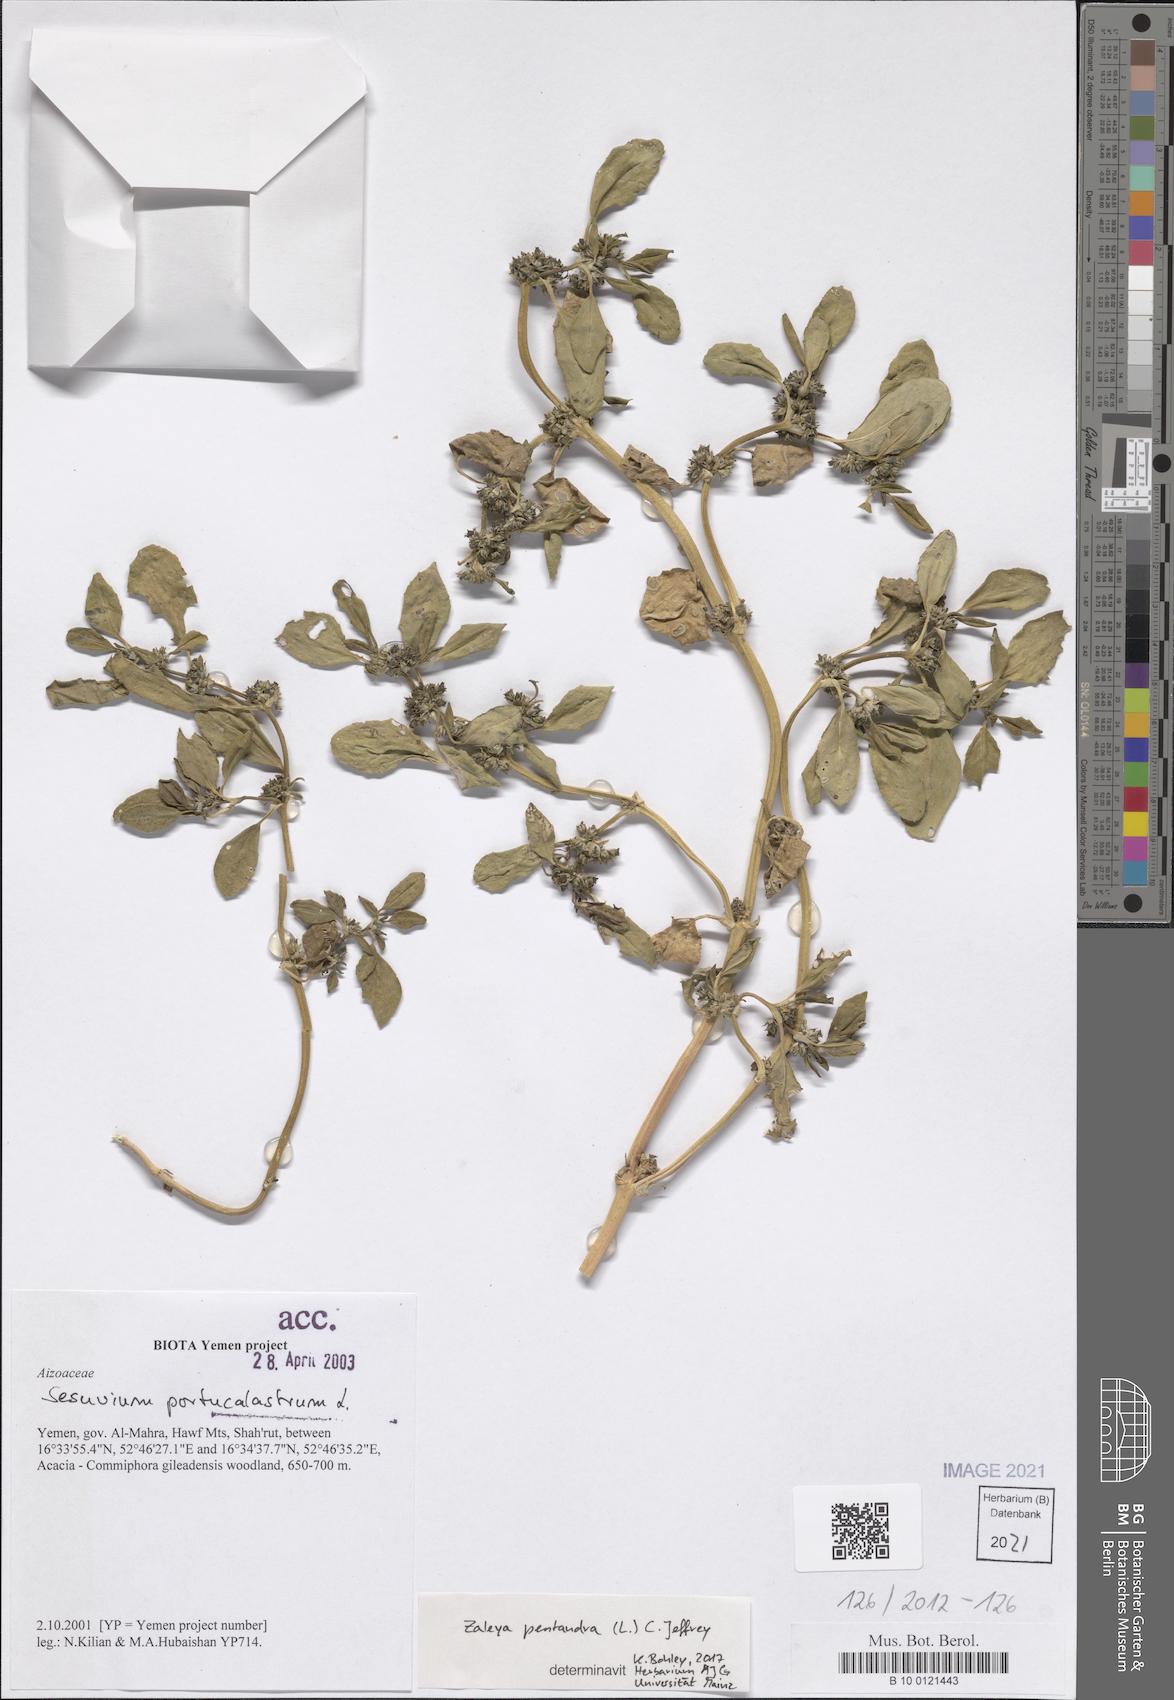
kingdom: Plantae
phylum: Tracheophyta
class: Magnoliopsida
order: Caryophyllales
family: Aizoaceae
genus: Zaleya
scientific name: Zaleya pentandra
